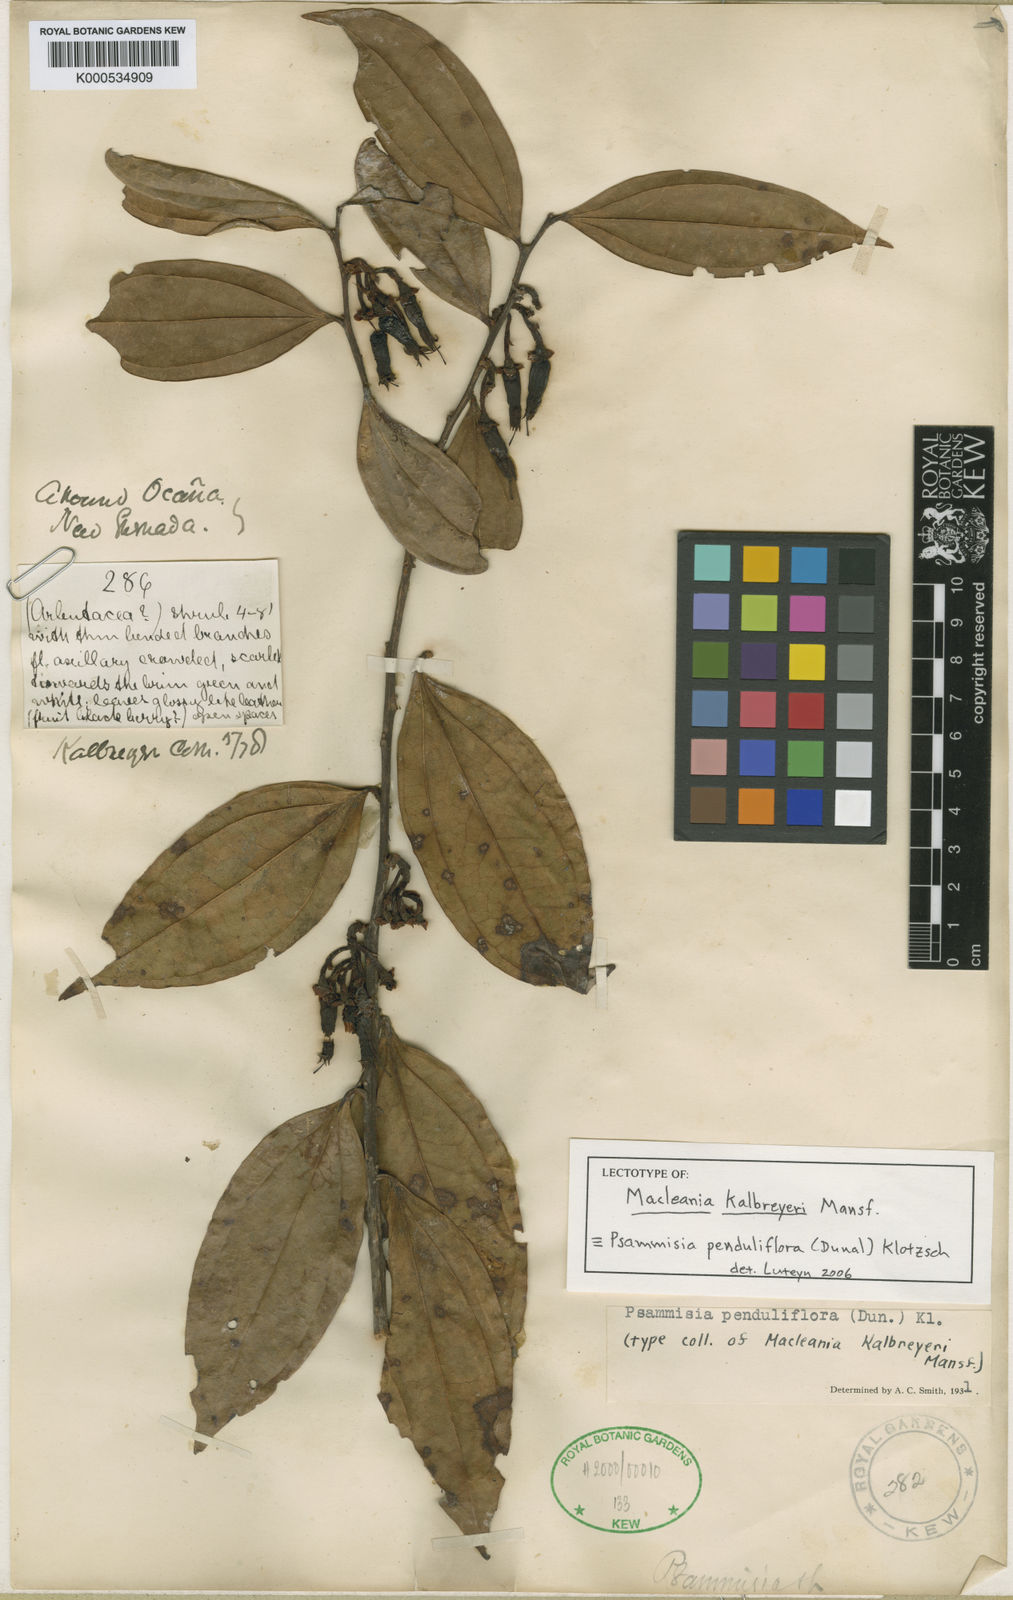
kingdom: Plantae
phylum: Tracheophyta
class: Magnoliopsida
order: Ericales
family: Ericaceae
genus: Psammisia
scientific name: Psammisia penduliflora
